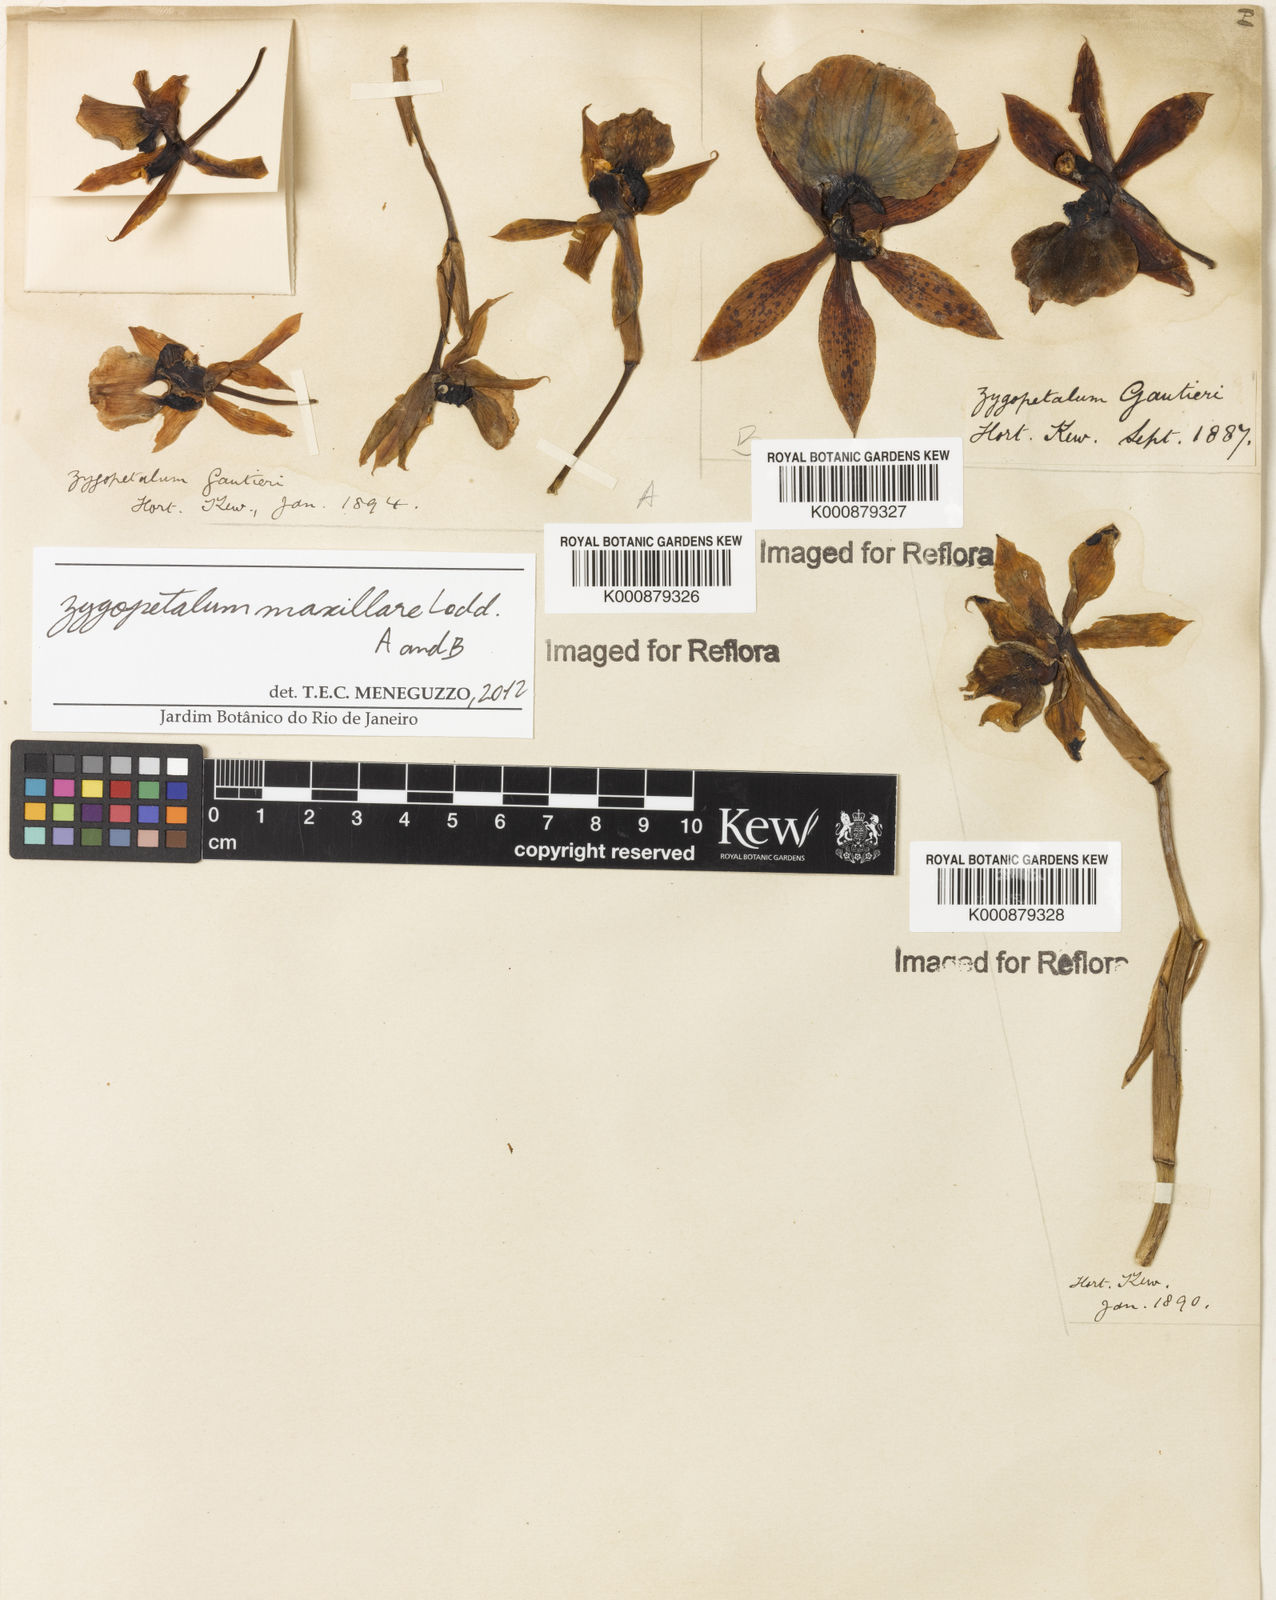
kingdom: Plantae
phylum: Tracheophyta
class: Liliopsida
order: Asparagales
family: Orchidaceae
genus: Zygopetalum
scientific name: Zygopetalum maxillare
